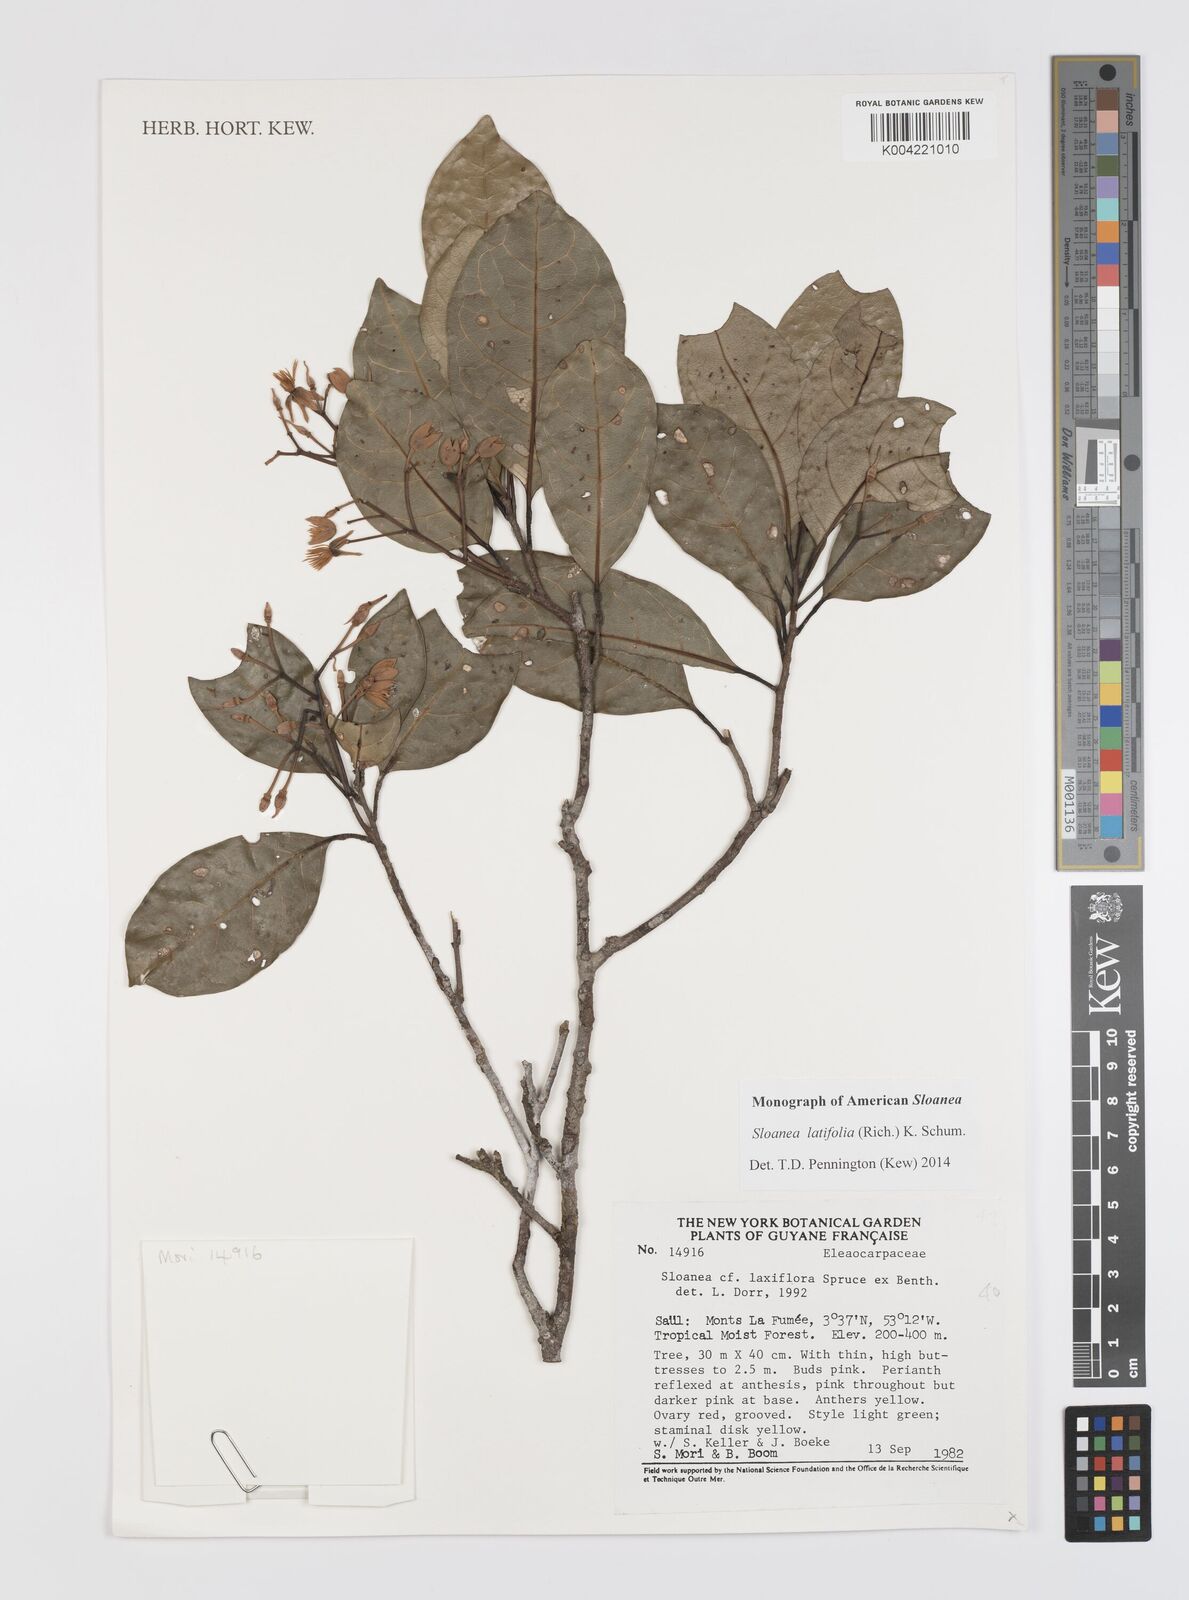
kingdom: Plantae
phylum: Tracheophyta
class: Magnoliopsida
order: Oxalidales
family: Elaeocarpaceae
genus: Sloanea
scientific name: Sloanea latifolia
